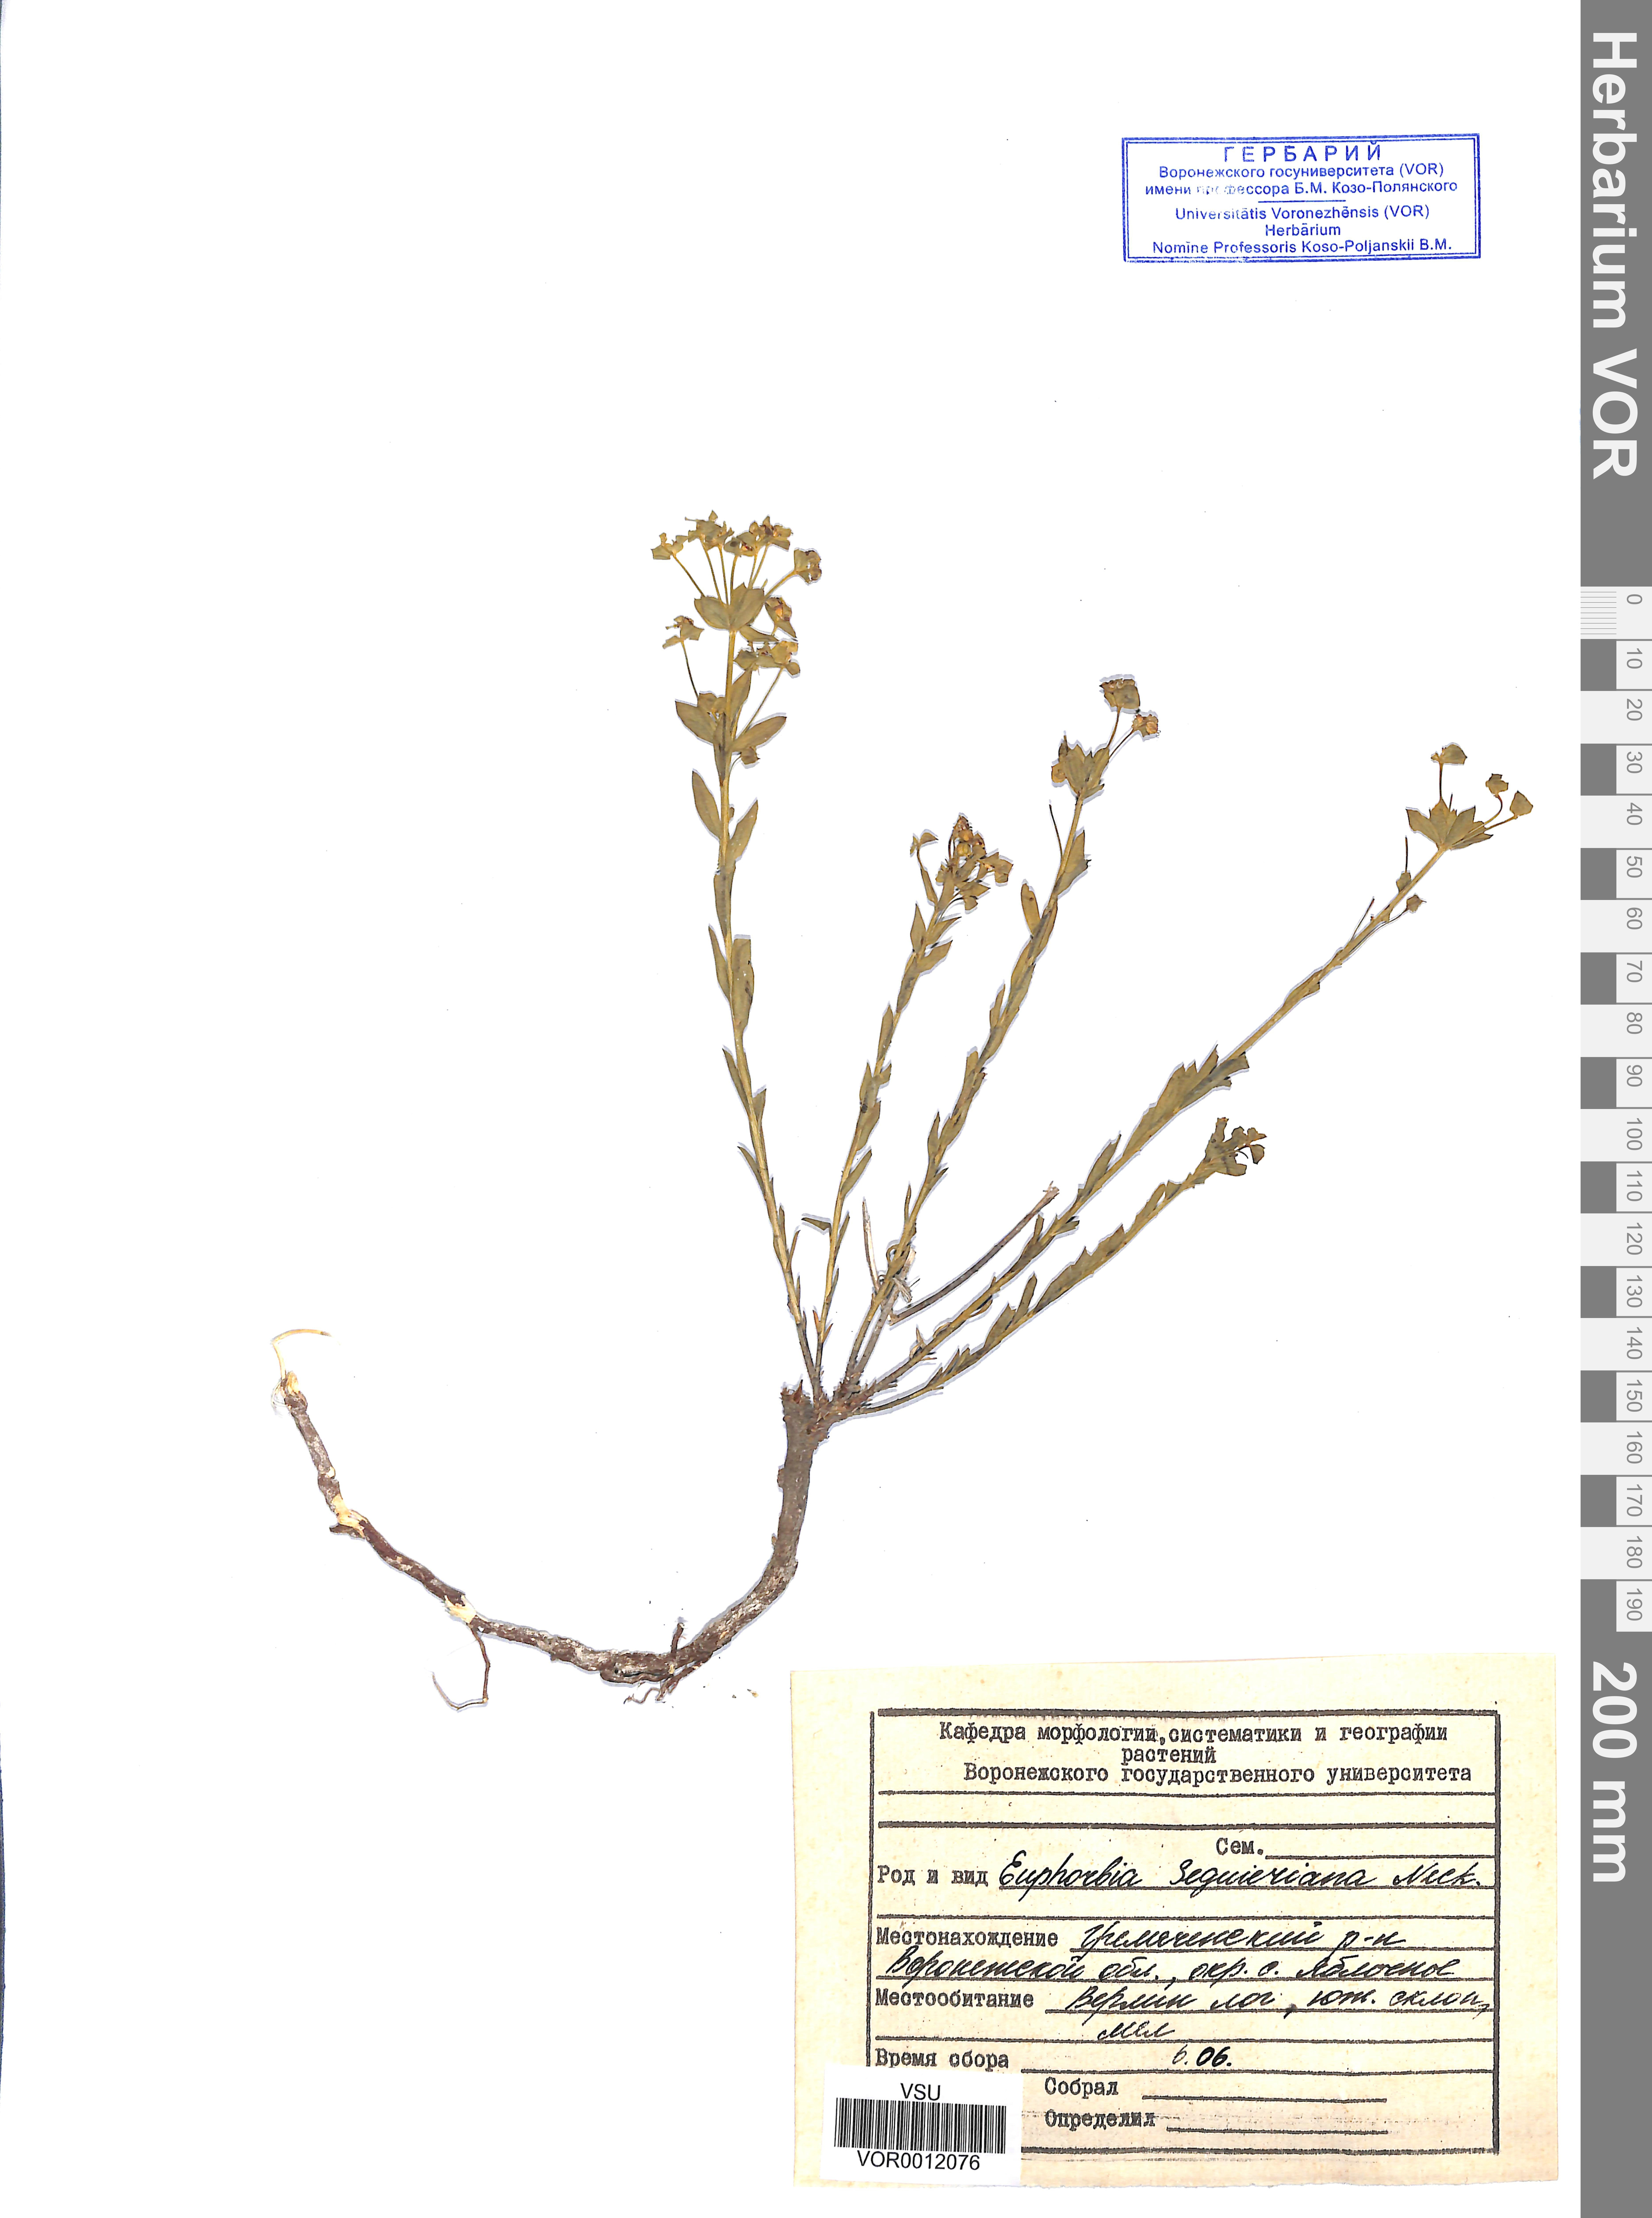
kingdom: Plantae
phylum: Tracheophyta
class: Magnoliopsida
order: Malpighiales
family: Euphorbiaceae
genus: Euphorbia
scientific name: Euphorbia seguieriana
